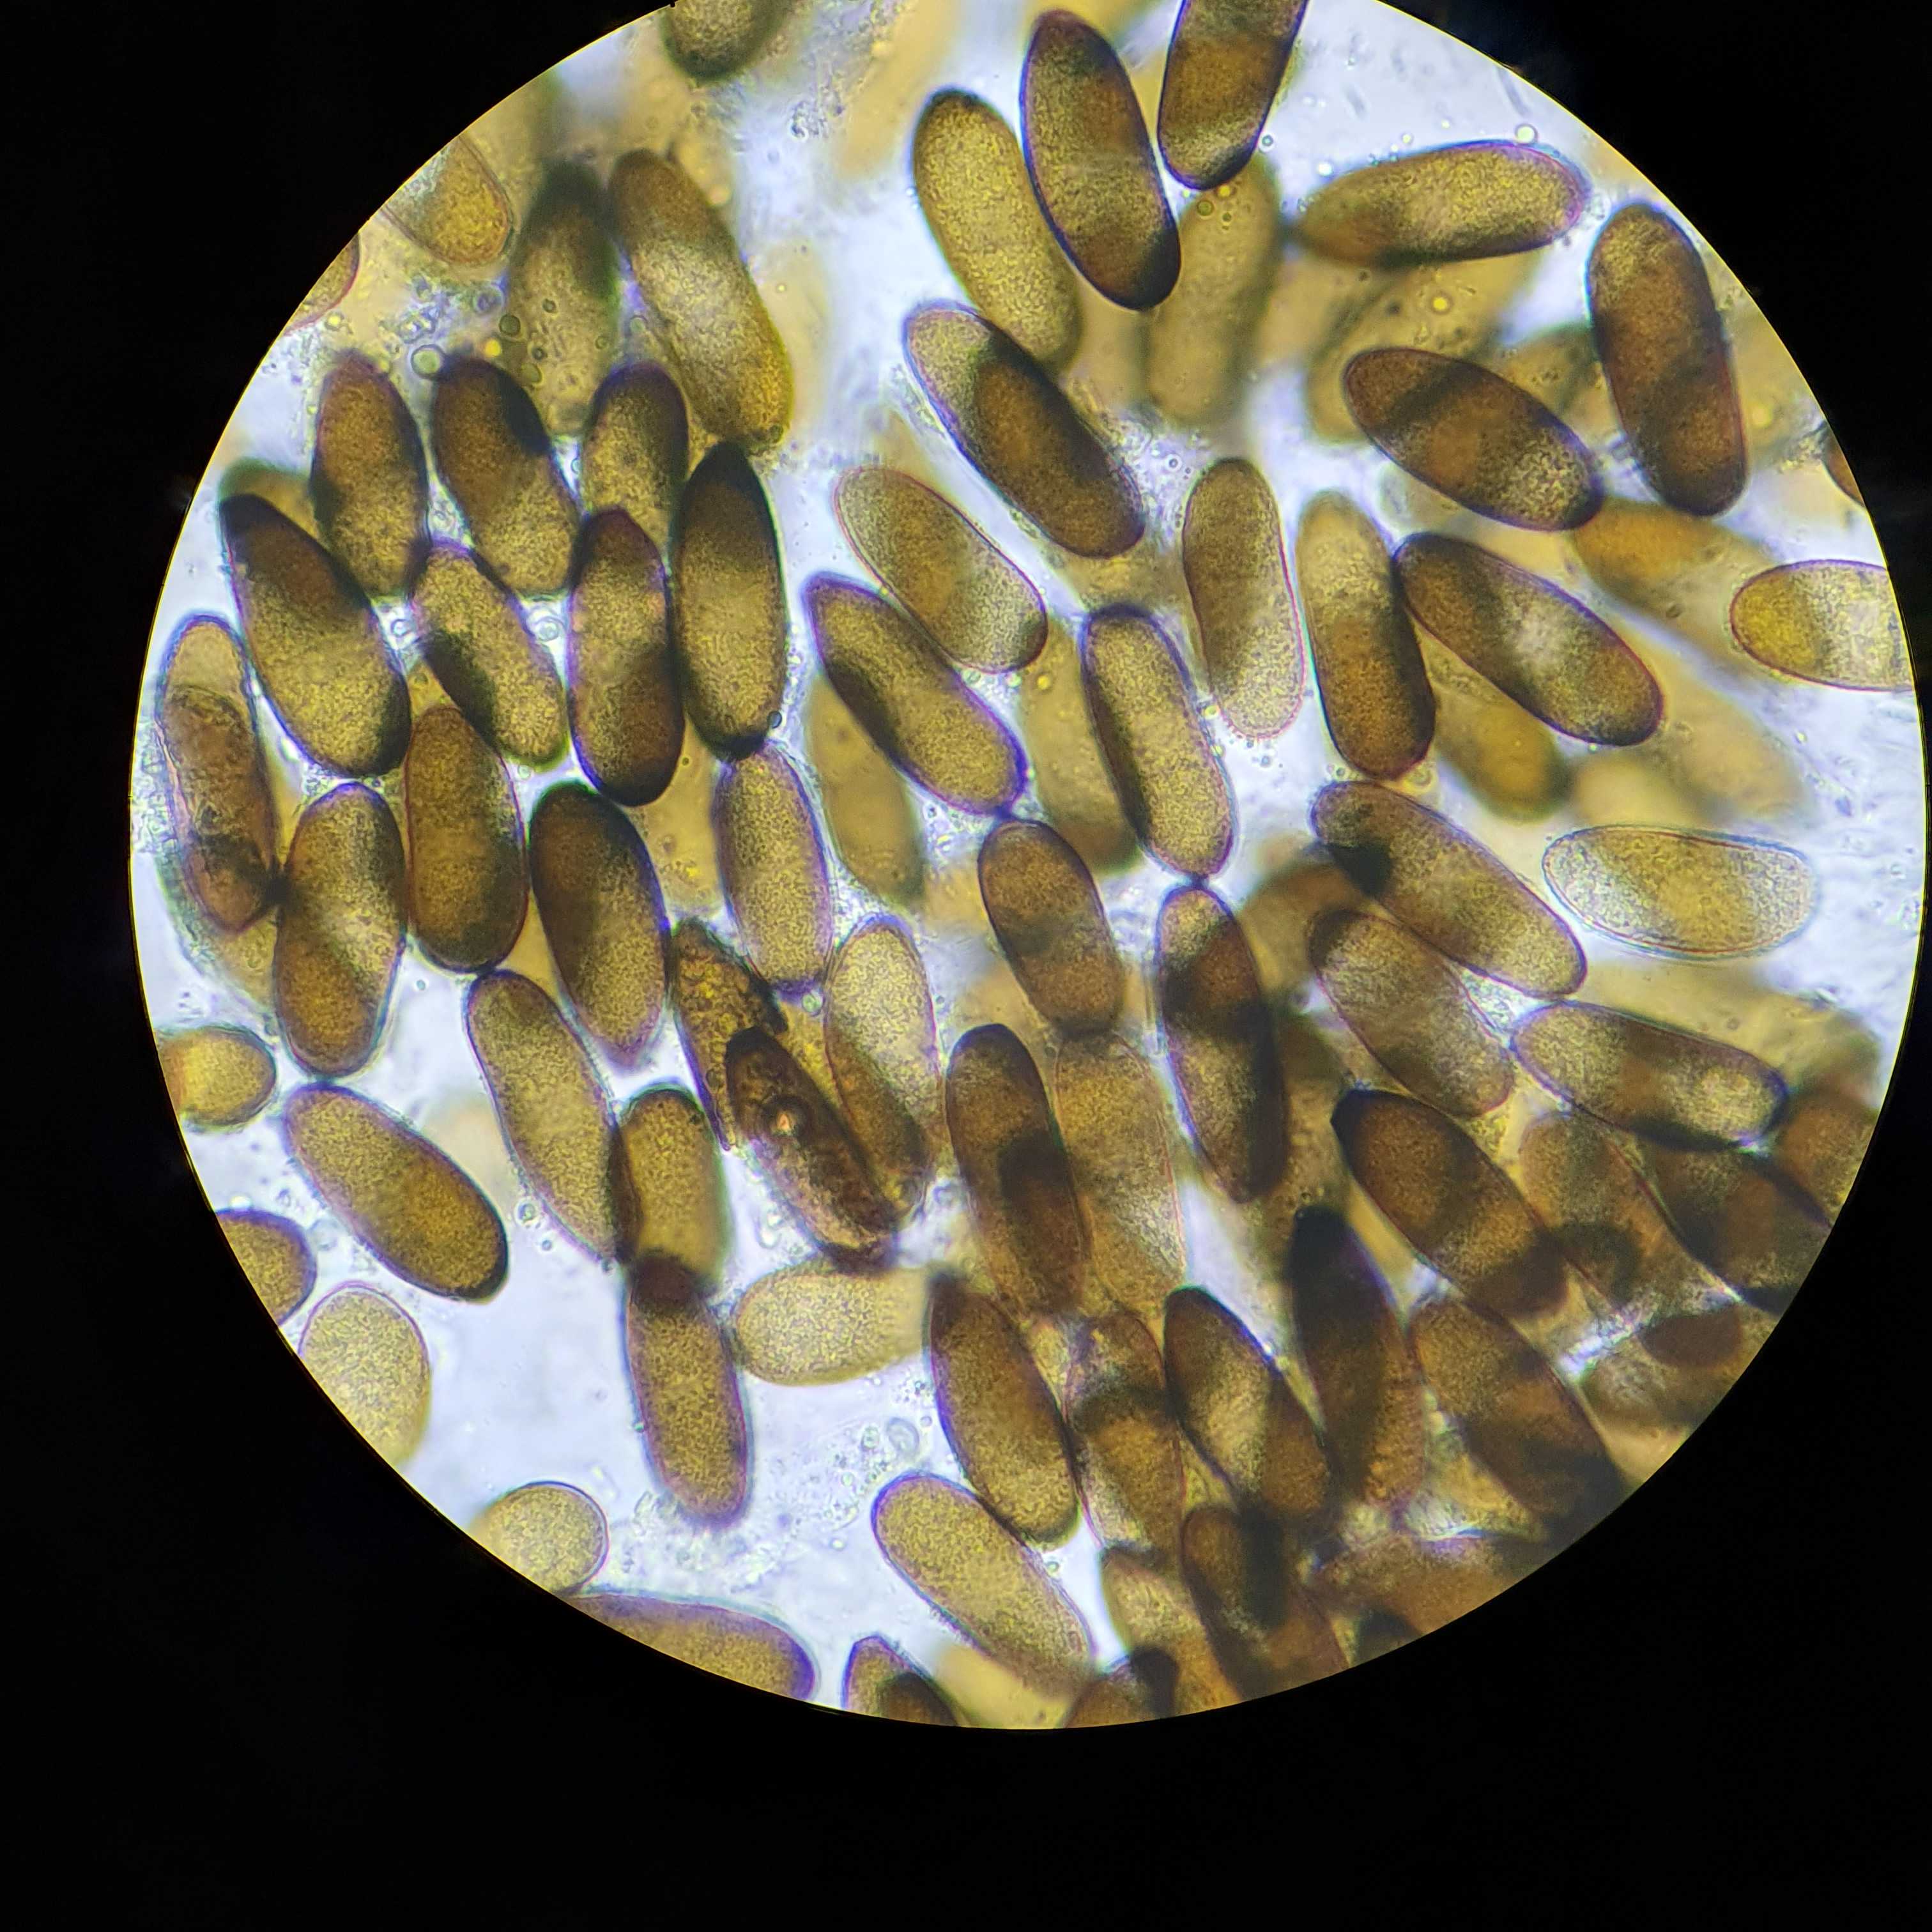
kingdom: Fungi
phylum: Ascomycota
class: Dothideomycetes
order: Botryosphaeriales
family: Botryosphaeriaceae
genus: Sphaeropsis
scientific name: Sphaeropsis sapinea
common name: Sphaeropsis blight
